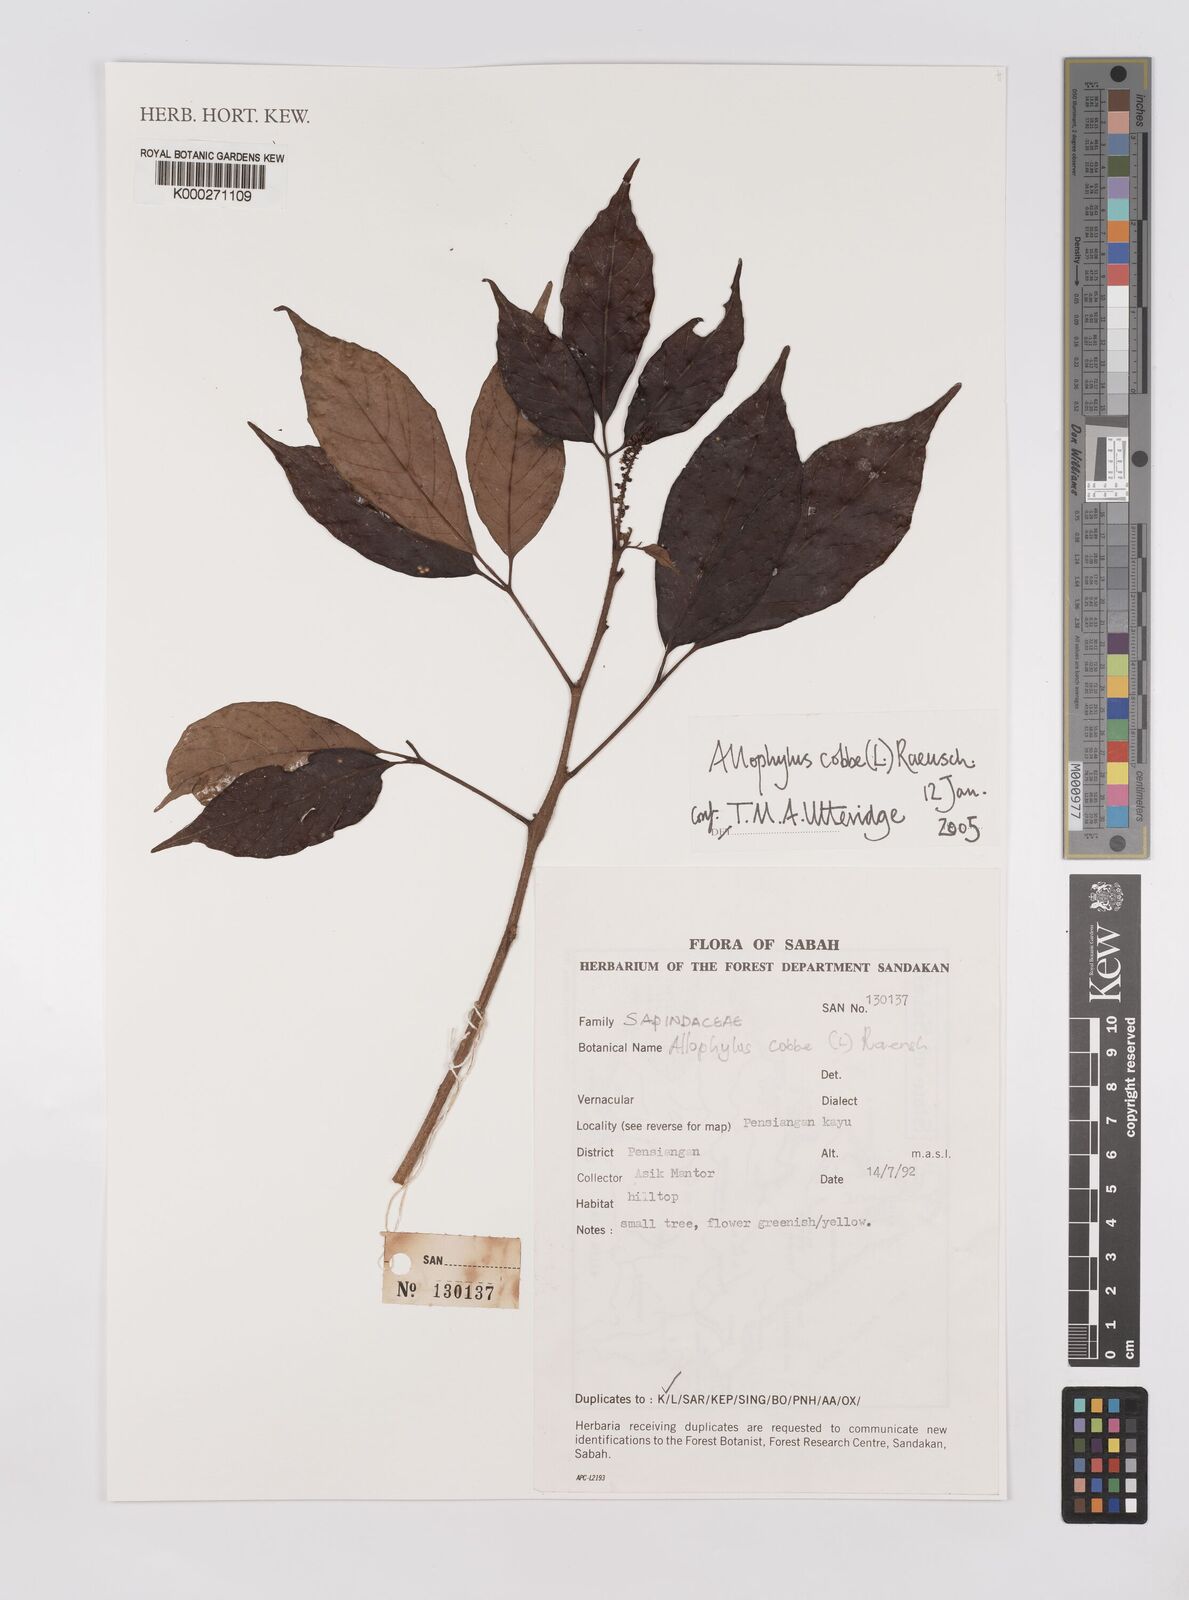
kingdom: Plantae
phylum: Tracheophyta
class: Magnoliopsida
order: Sapindales
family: Sapindaceae
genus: Allophylus
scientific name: Allophylus
